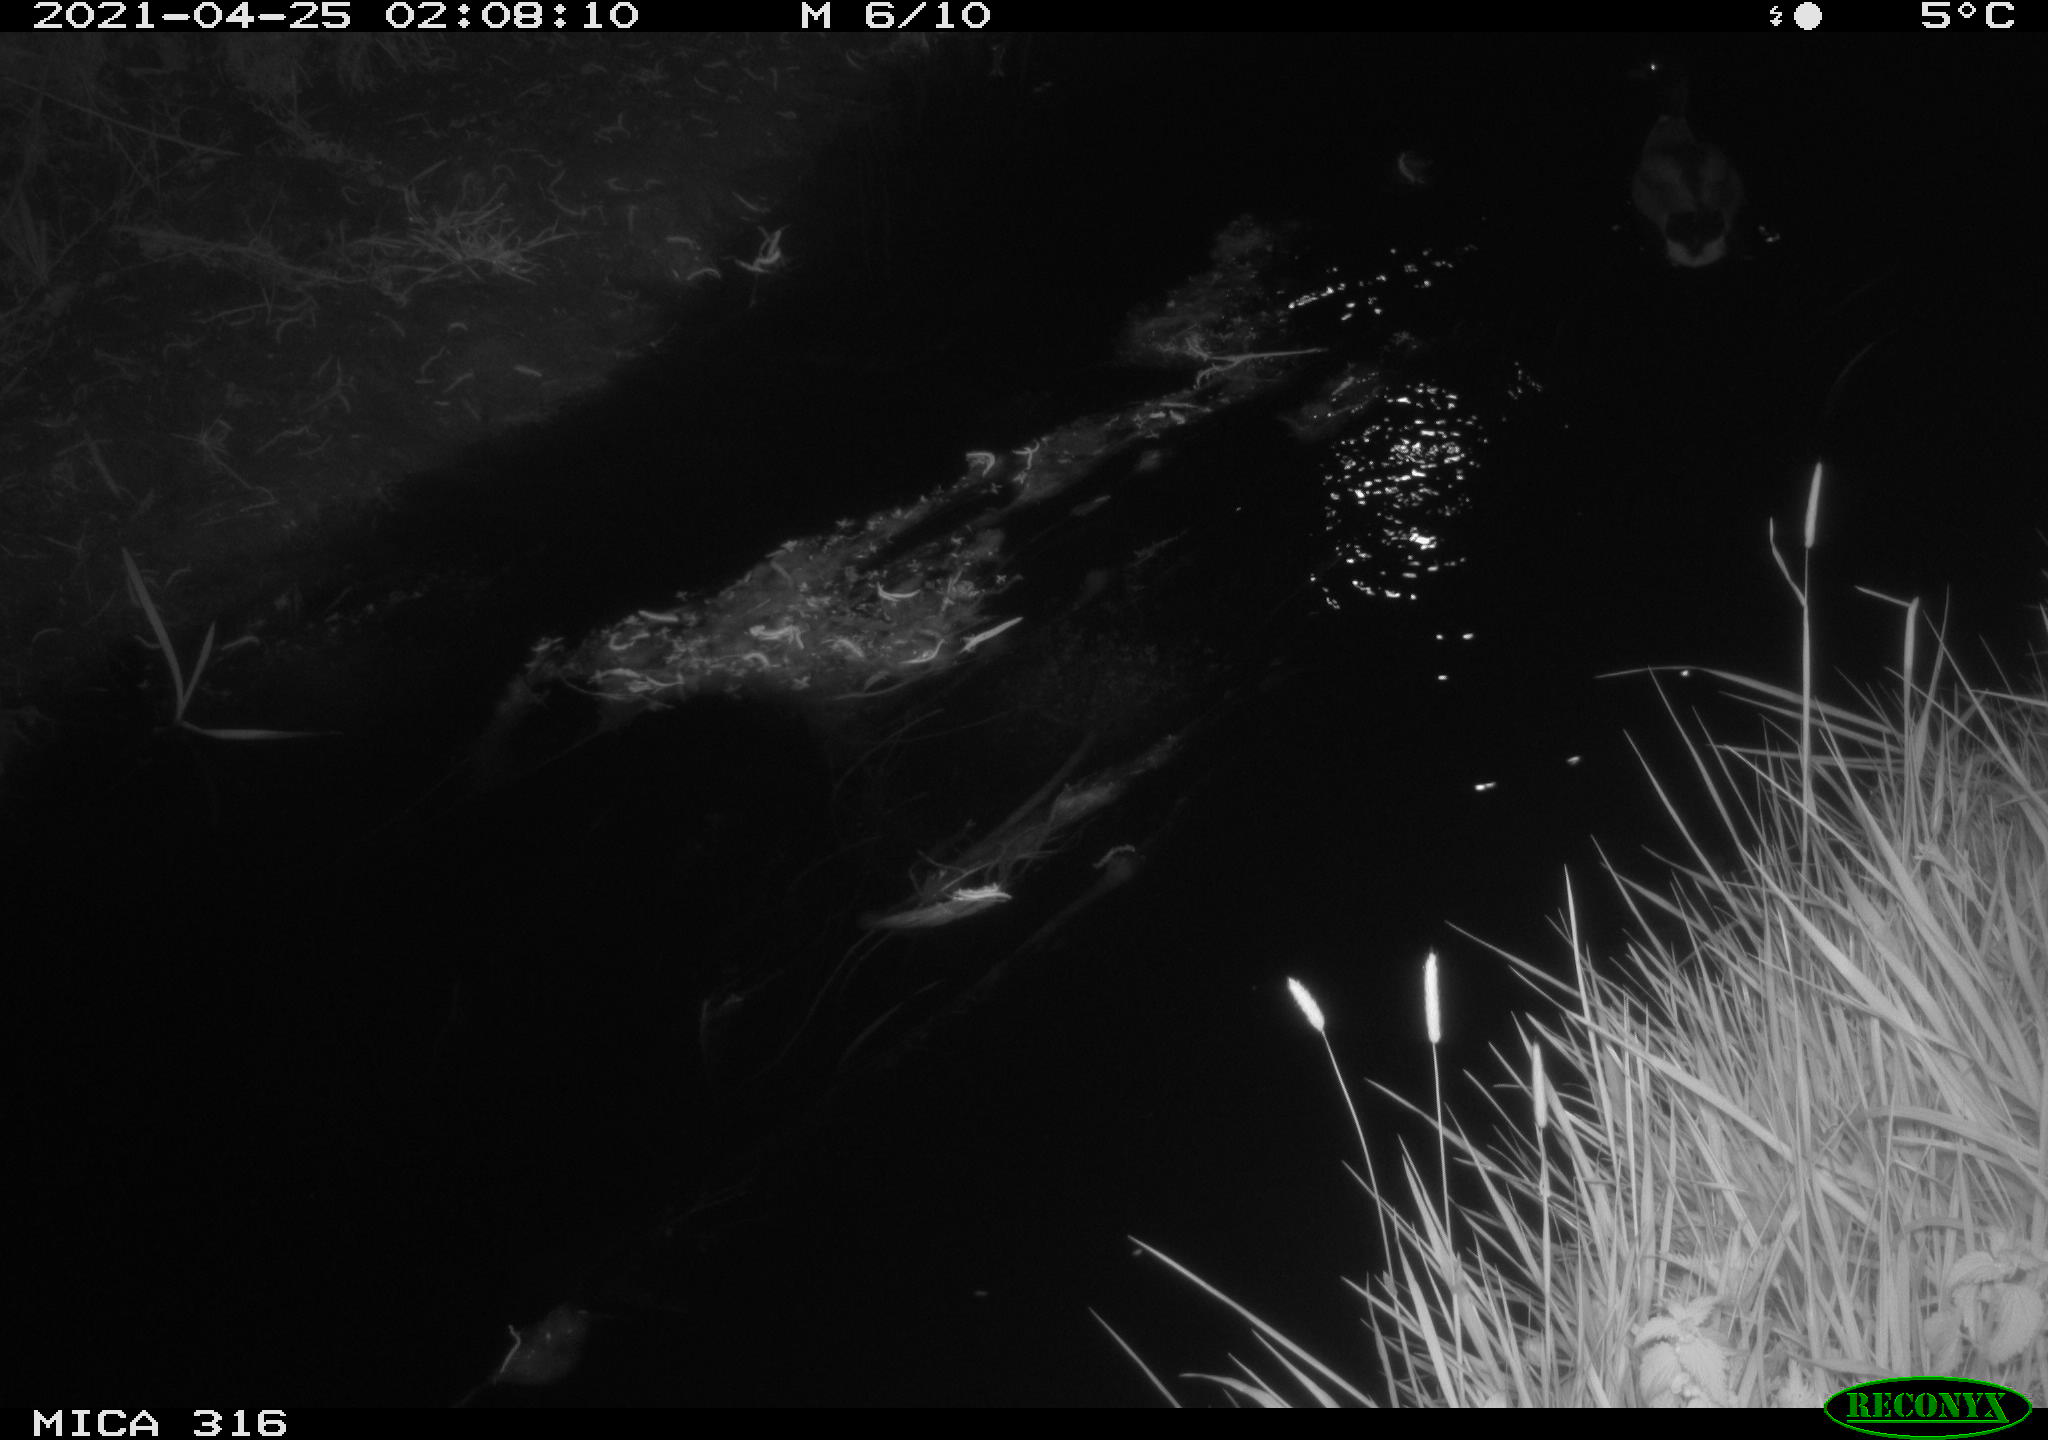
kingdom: Animalia
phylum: Chordata
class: Aves
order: Anseriformes
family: Anatidae
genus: Anas
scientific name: Anas platyrhynchos
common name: Mallard
